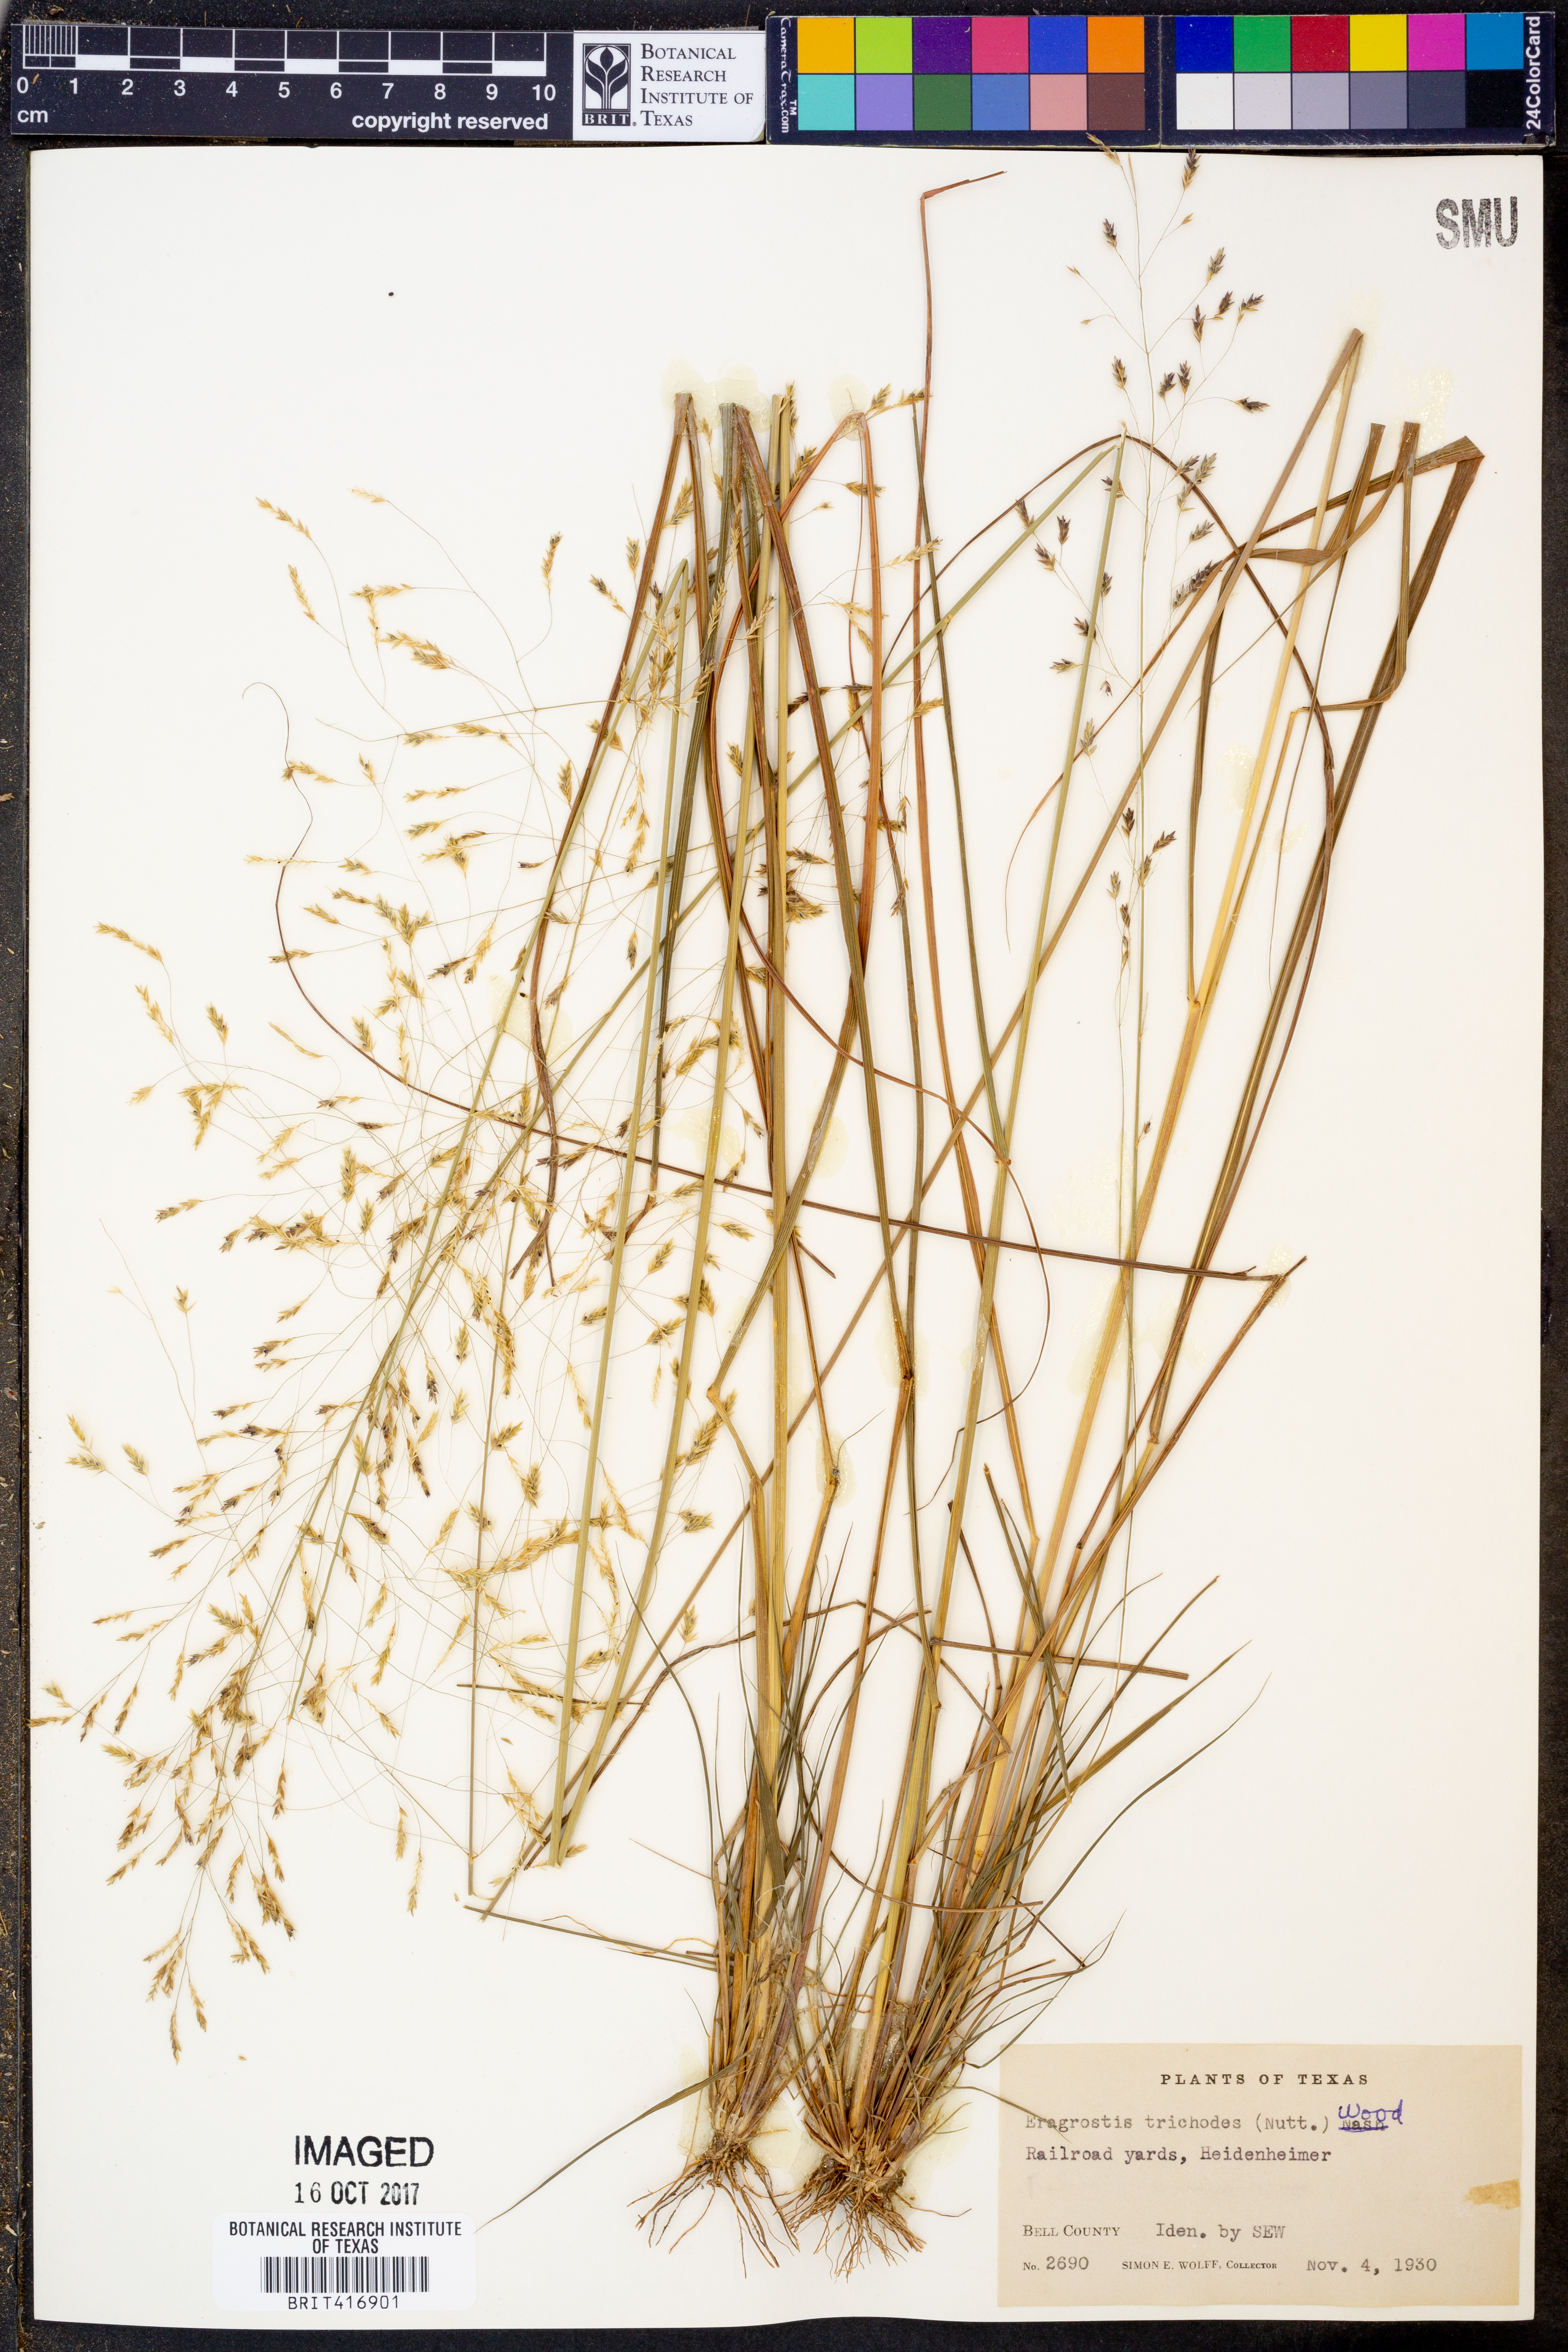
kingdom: Plantae
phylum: Tracheophyta
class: Liliopsida
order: Poales
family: Poaceae
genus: Eragrostis
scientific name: Eragrostis trichodes
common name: Sand love grass
